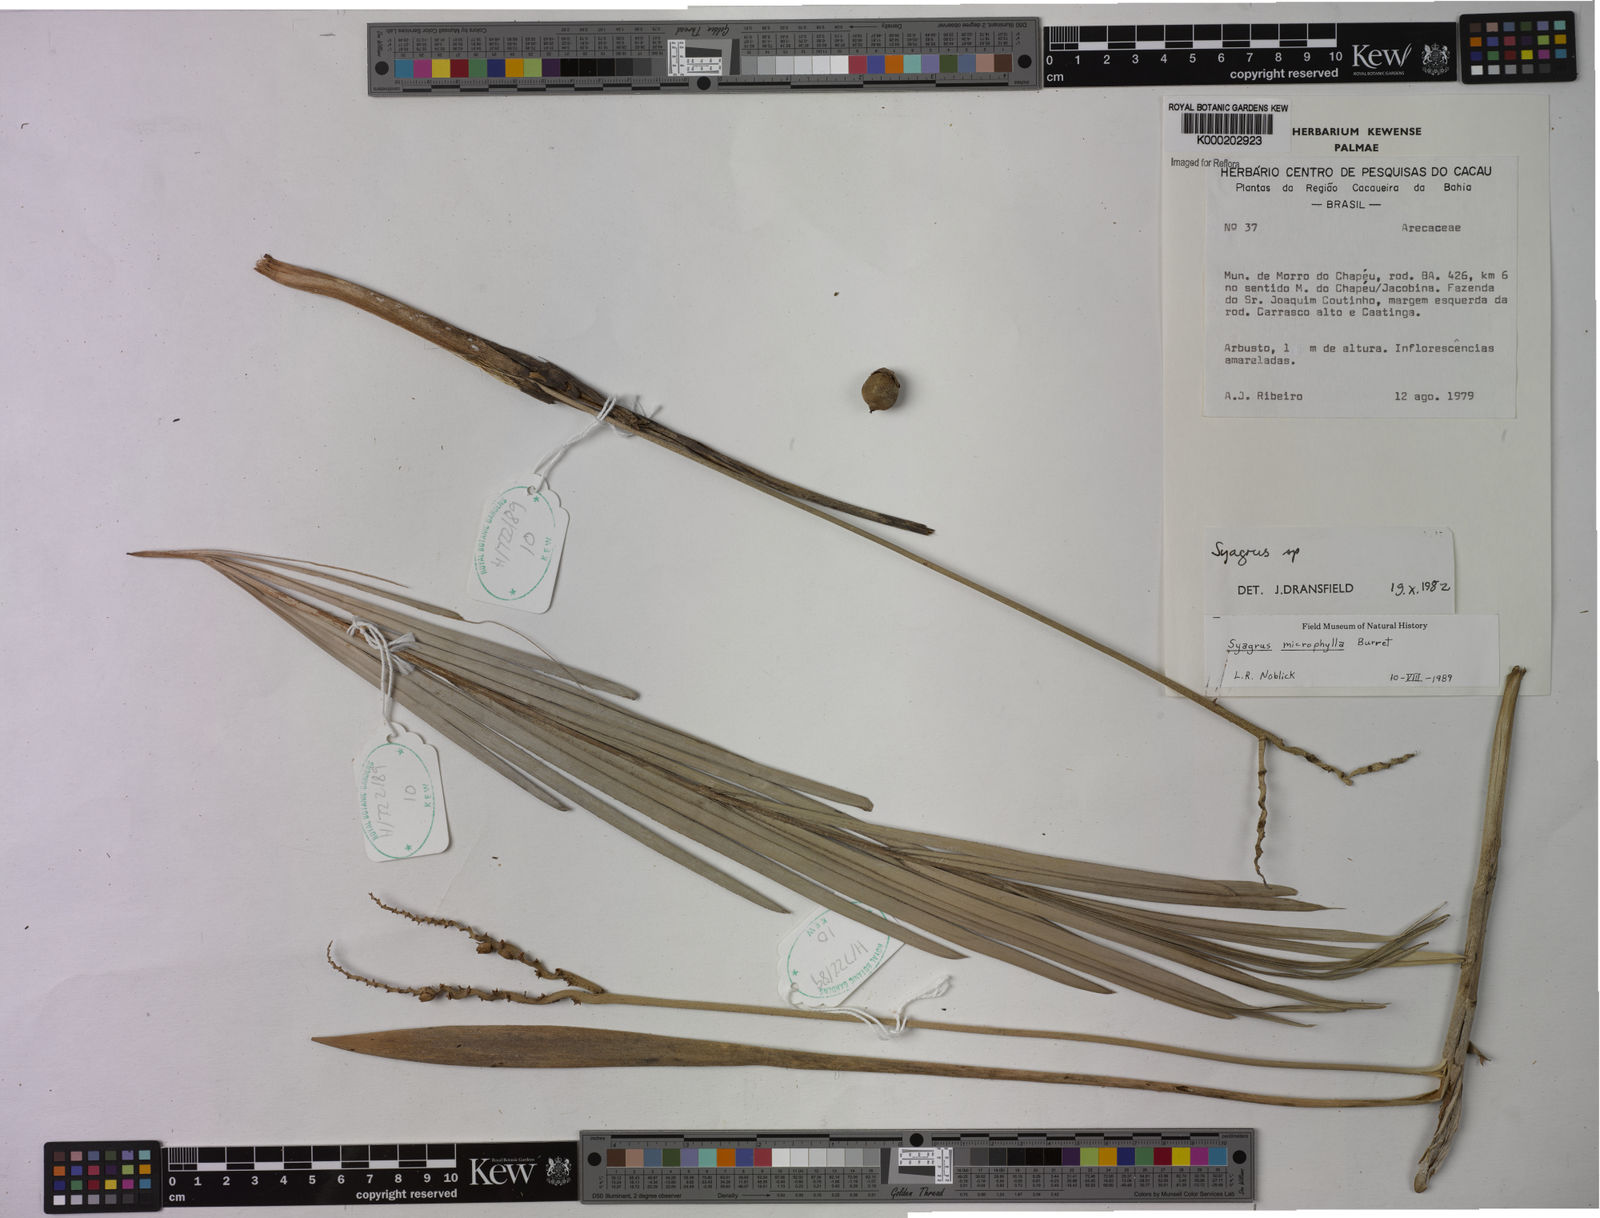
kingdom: Plantae
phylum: Tracheophyta
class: Liliopsida
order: Arecales
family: Arecaceae
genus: Syagrus
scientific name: Syagrus microphylla
